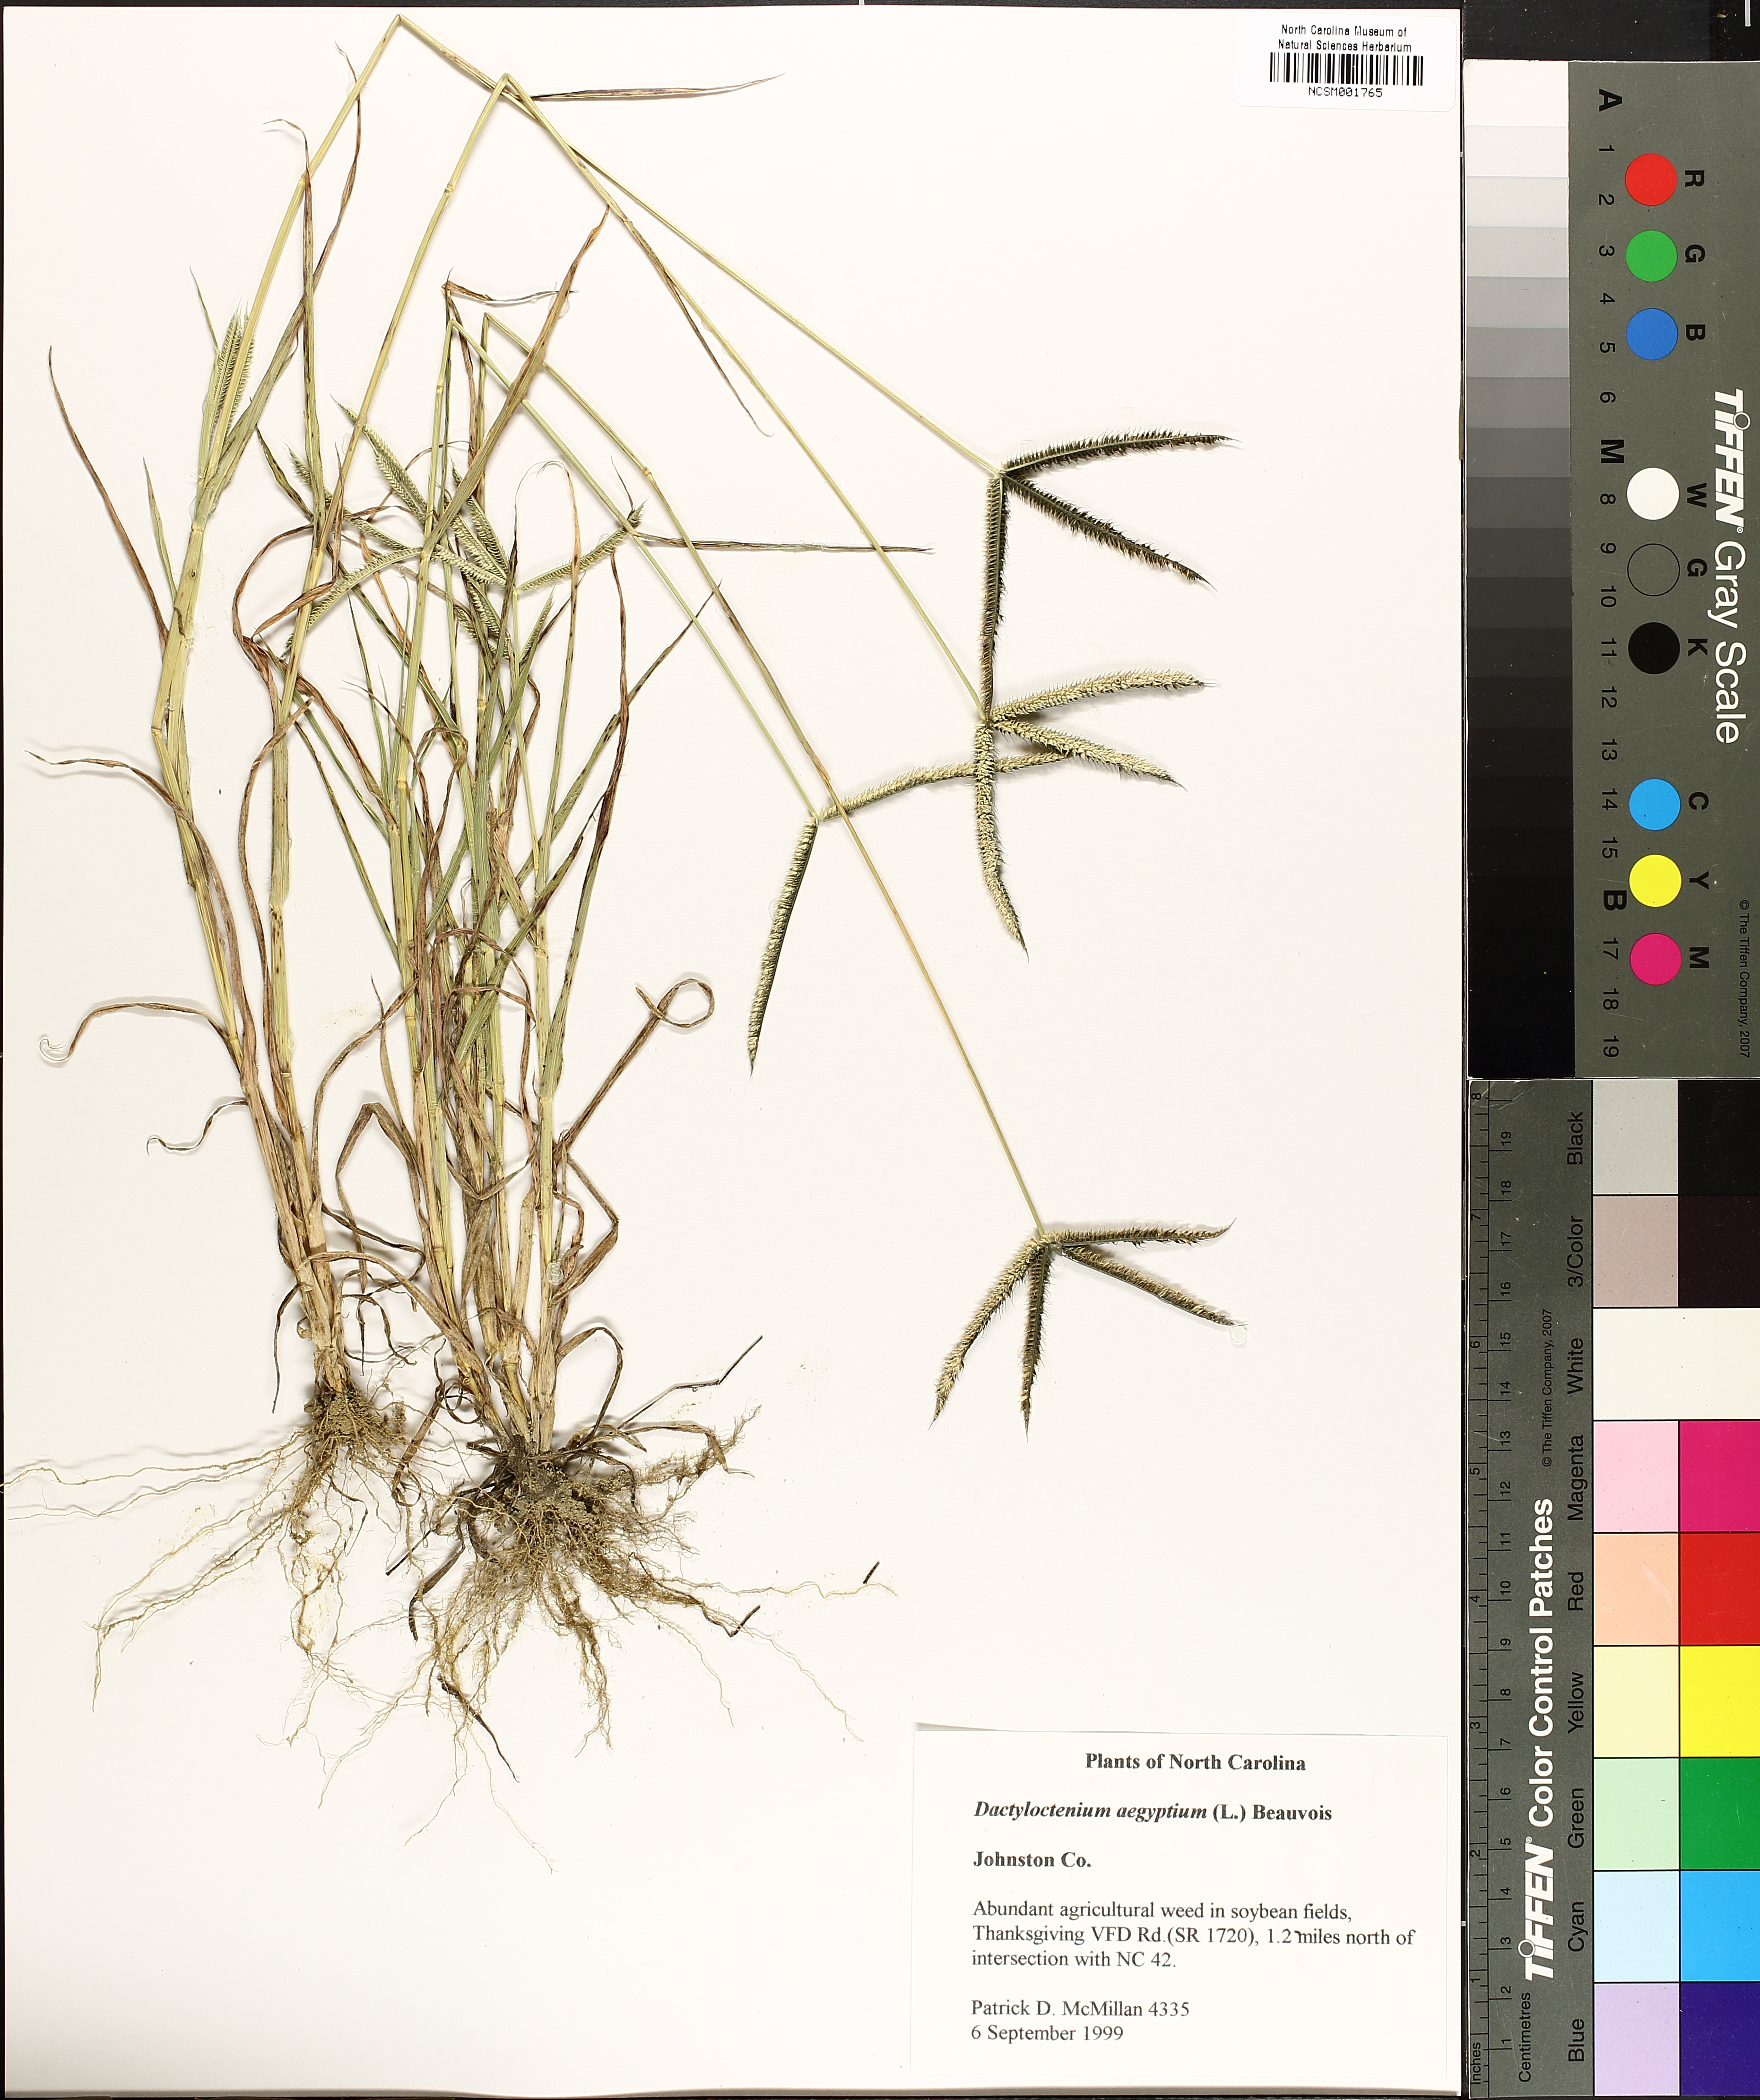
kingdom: Plantae
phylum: Tracheophyta
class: Liliopsida
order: Poales
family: Poaceae
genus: Dactyloctenium
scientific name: Dactyloctenium aegyptium
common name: Egyptian grass
